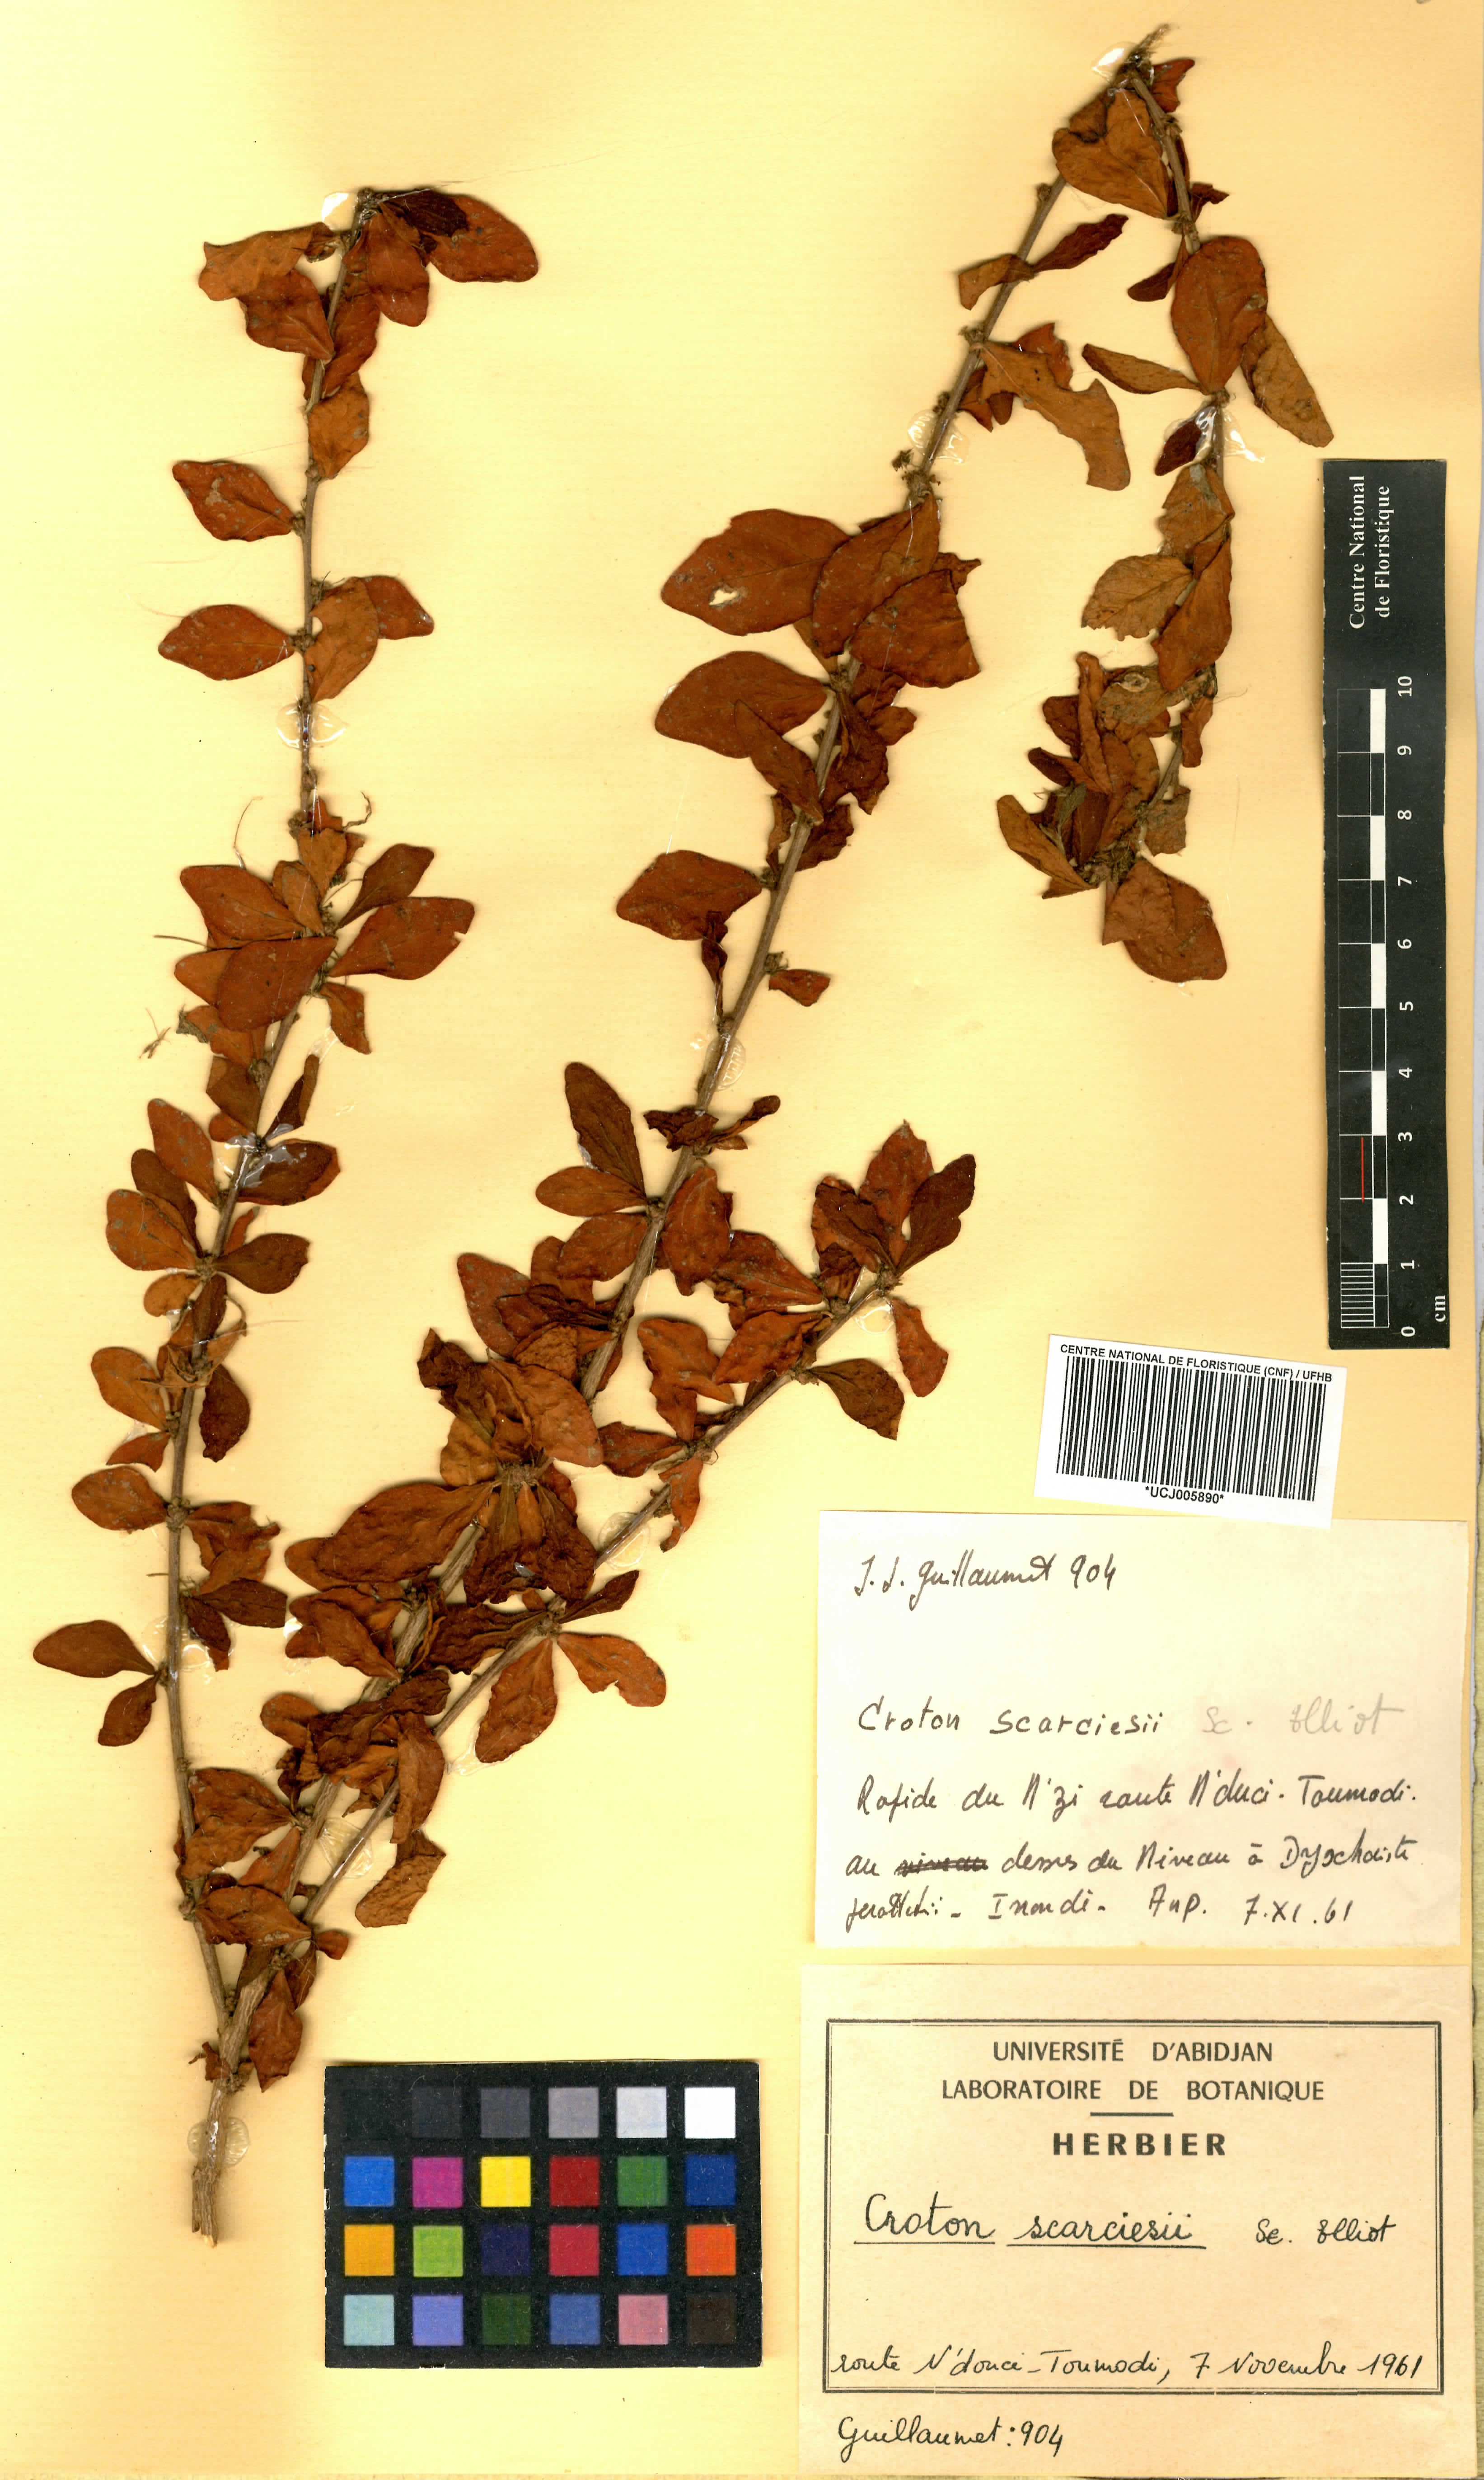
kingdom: Plantae
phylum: Tracheophyta
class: Magnoliopsida
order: Malpighiales
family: Euphorbiaceae
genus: Karima
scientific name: Karima scarciesii
